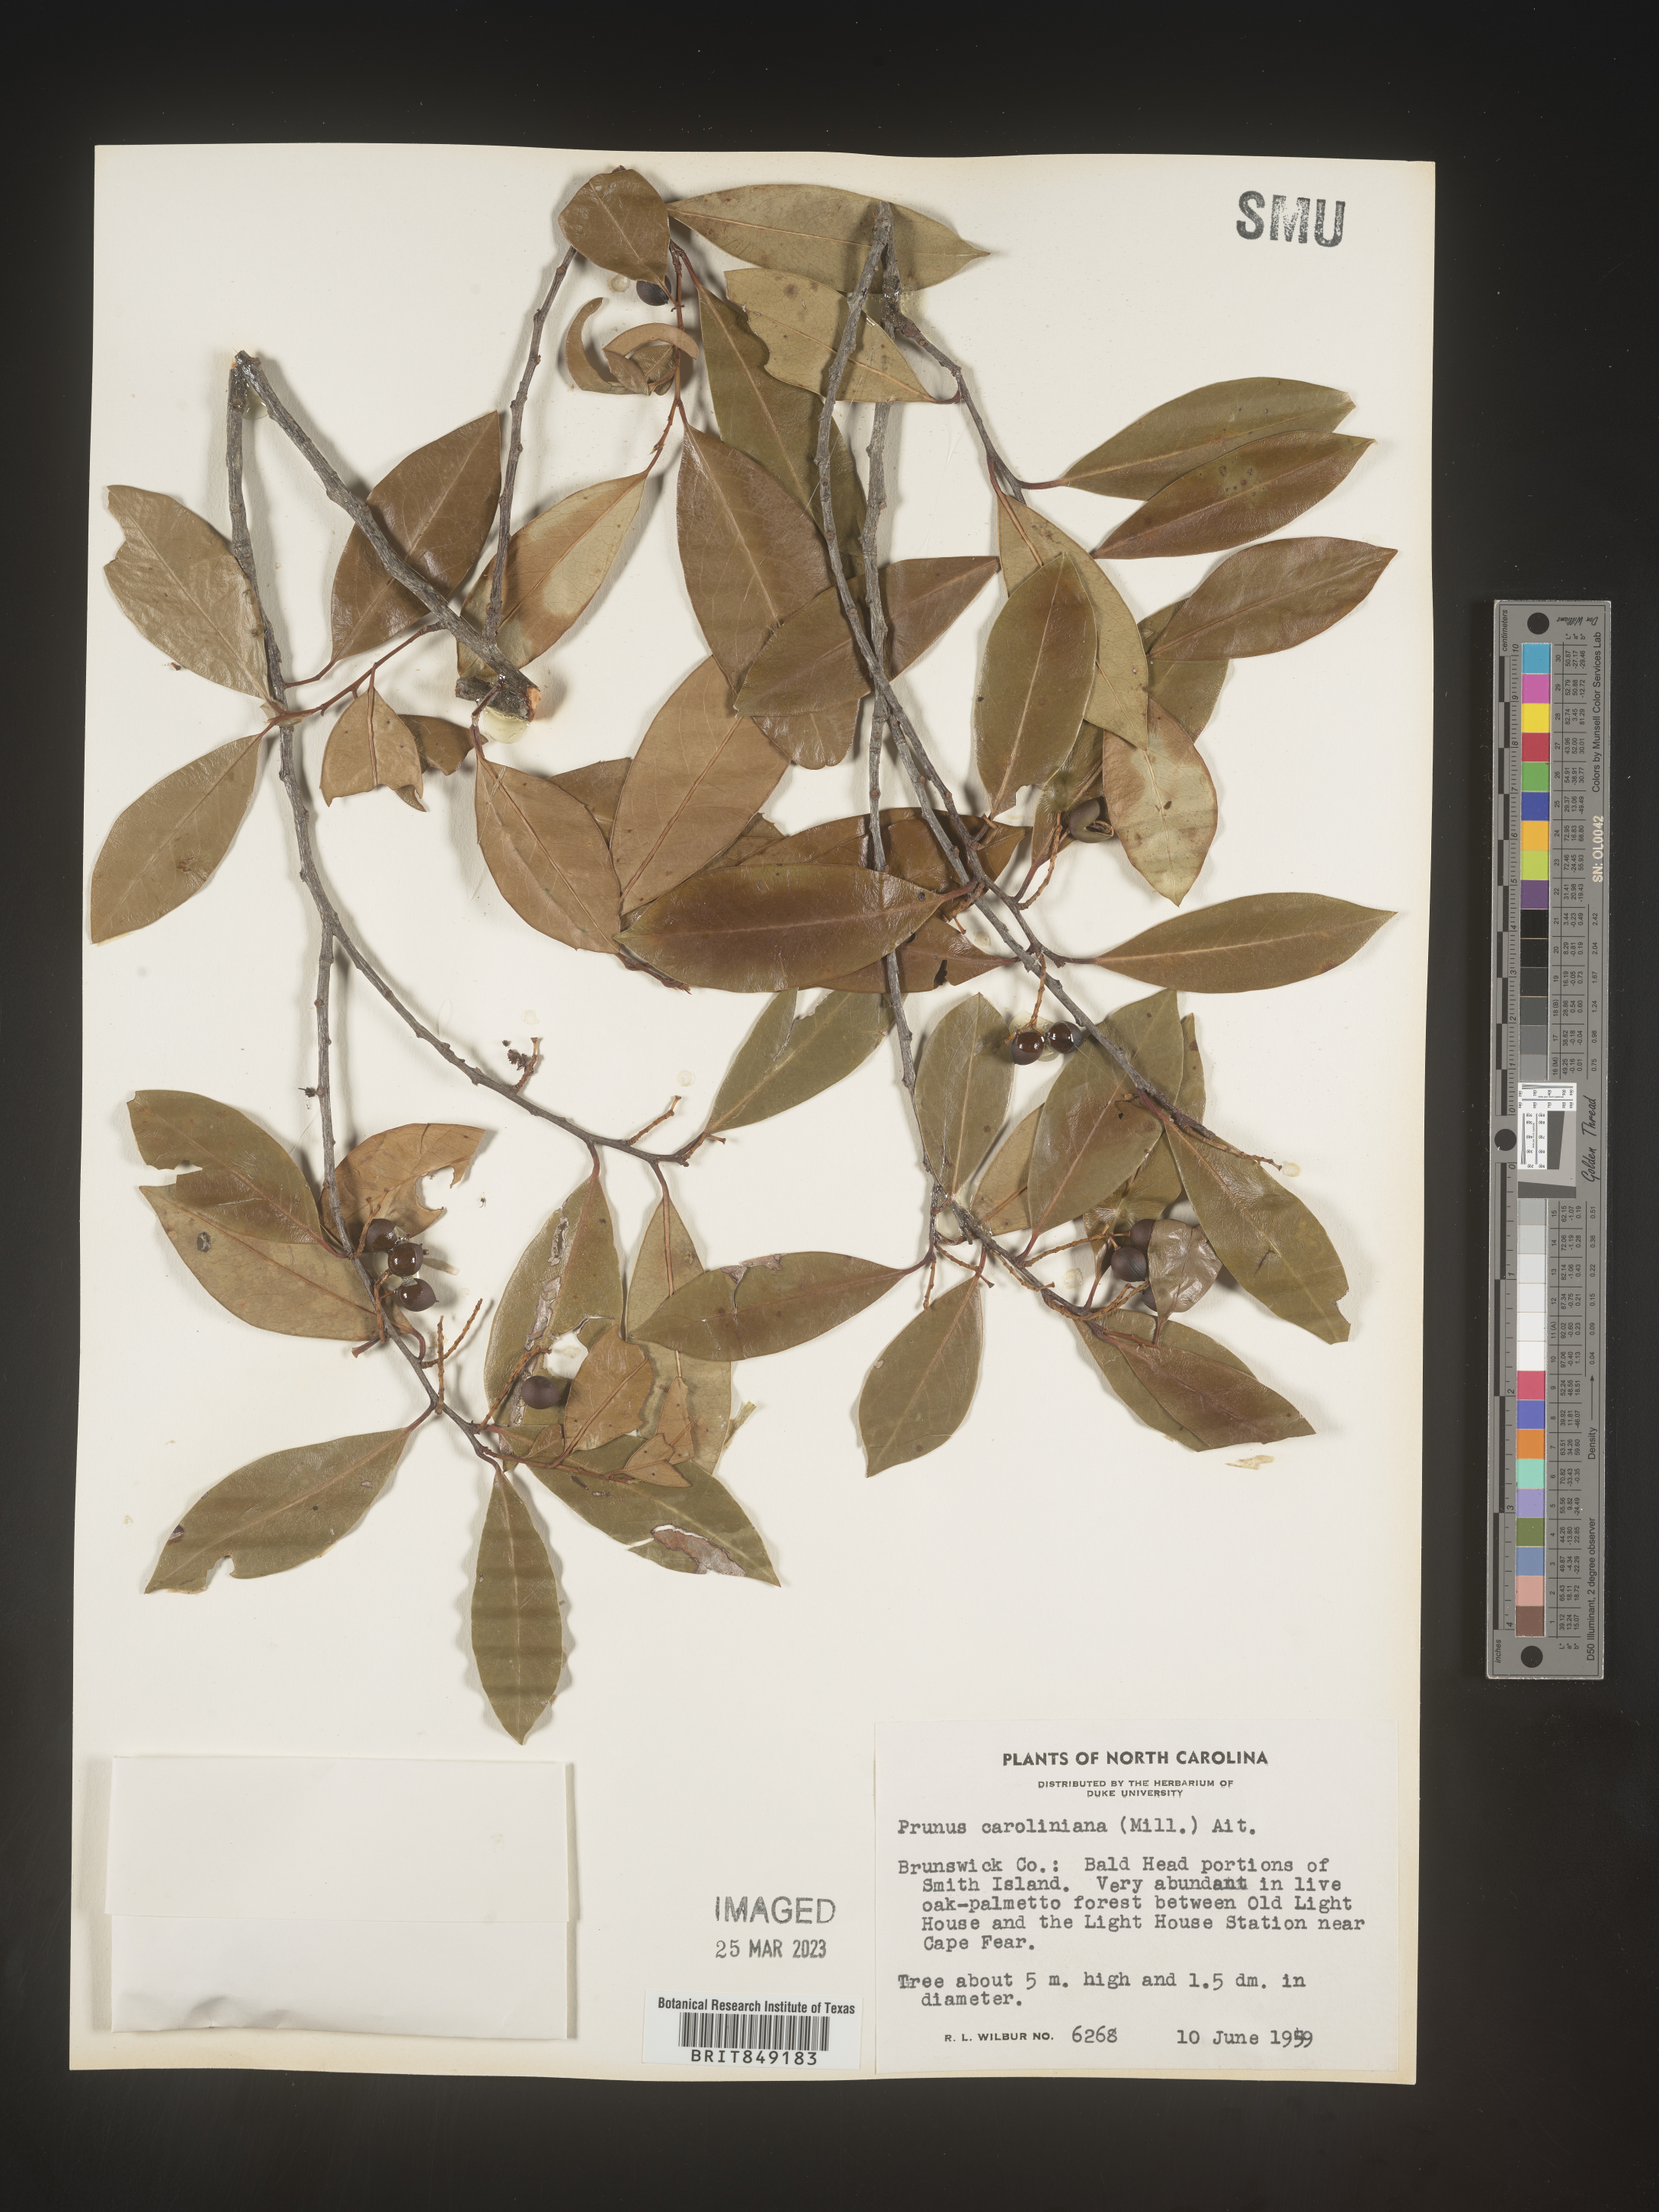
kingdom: Plantae
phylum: Tracheophyta
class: Magnoliopsida
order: Rosales
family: Rosaceae
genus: Prunus
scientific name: Prunus
